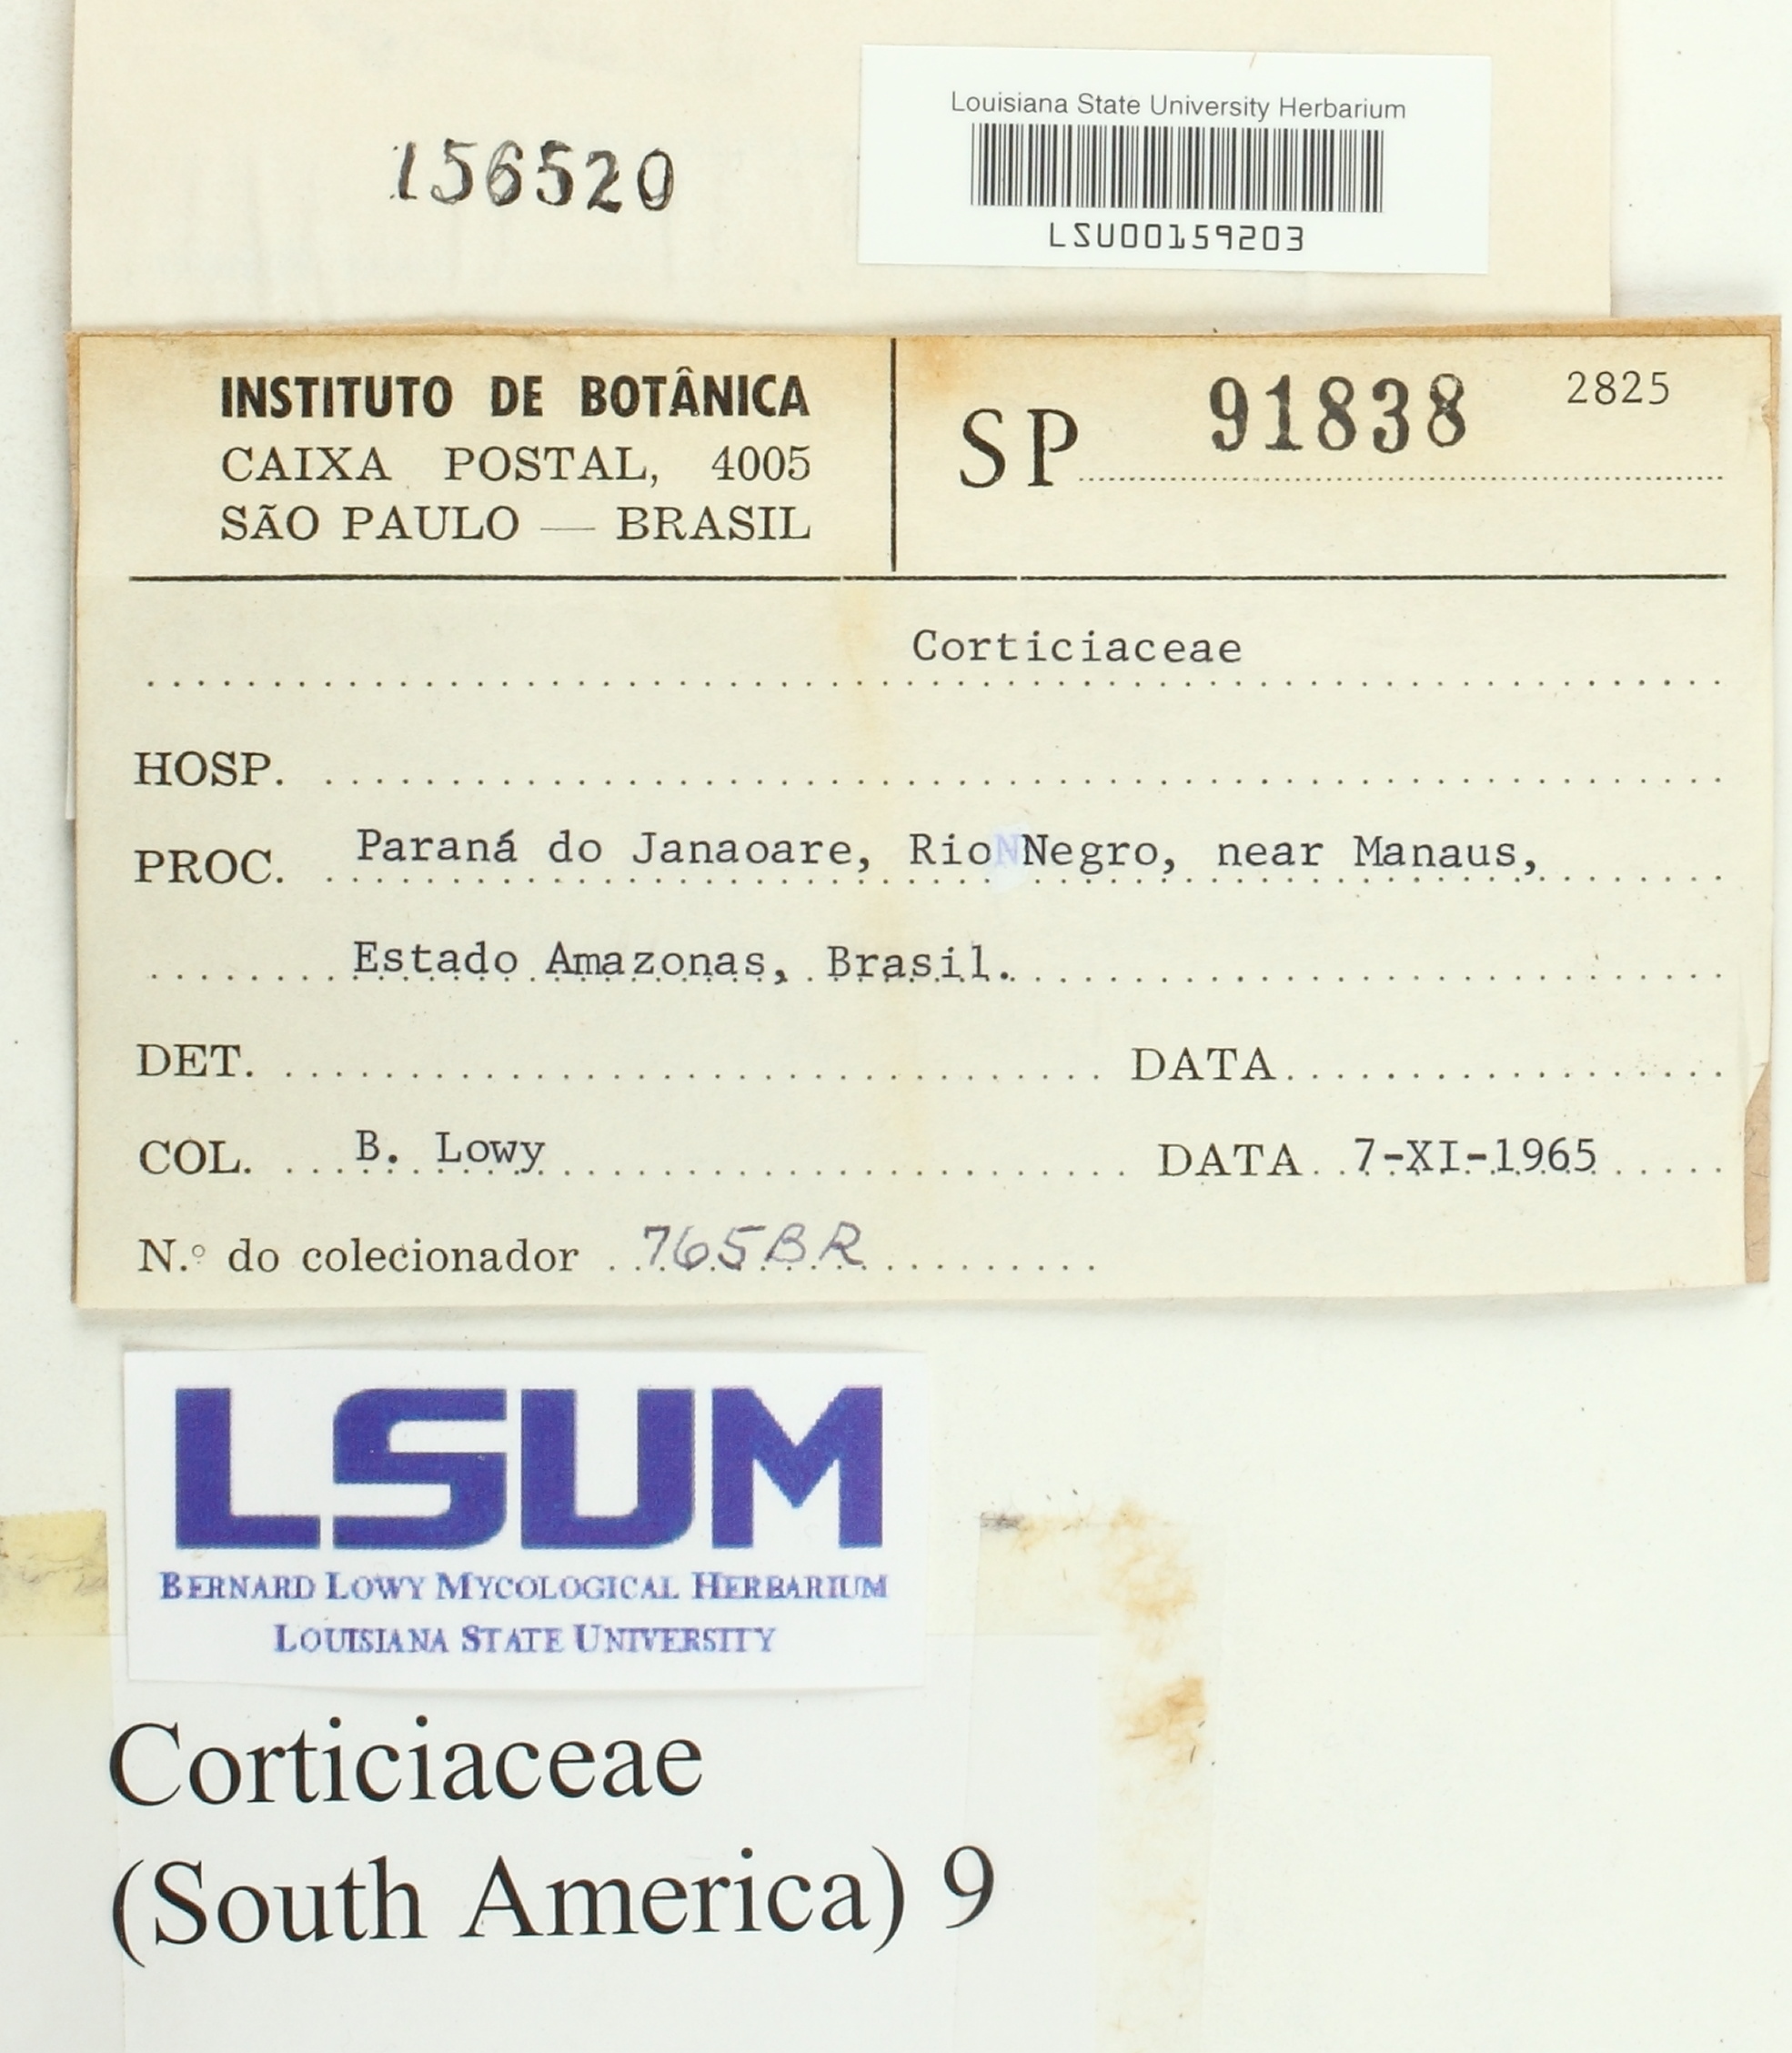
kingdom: Fungi
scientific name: Fungi
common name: Fungi
